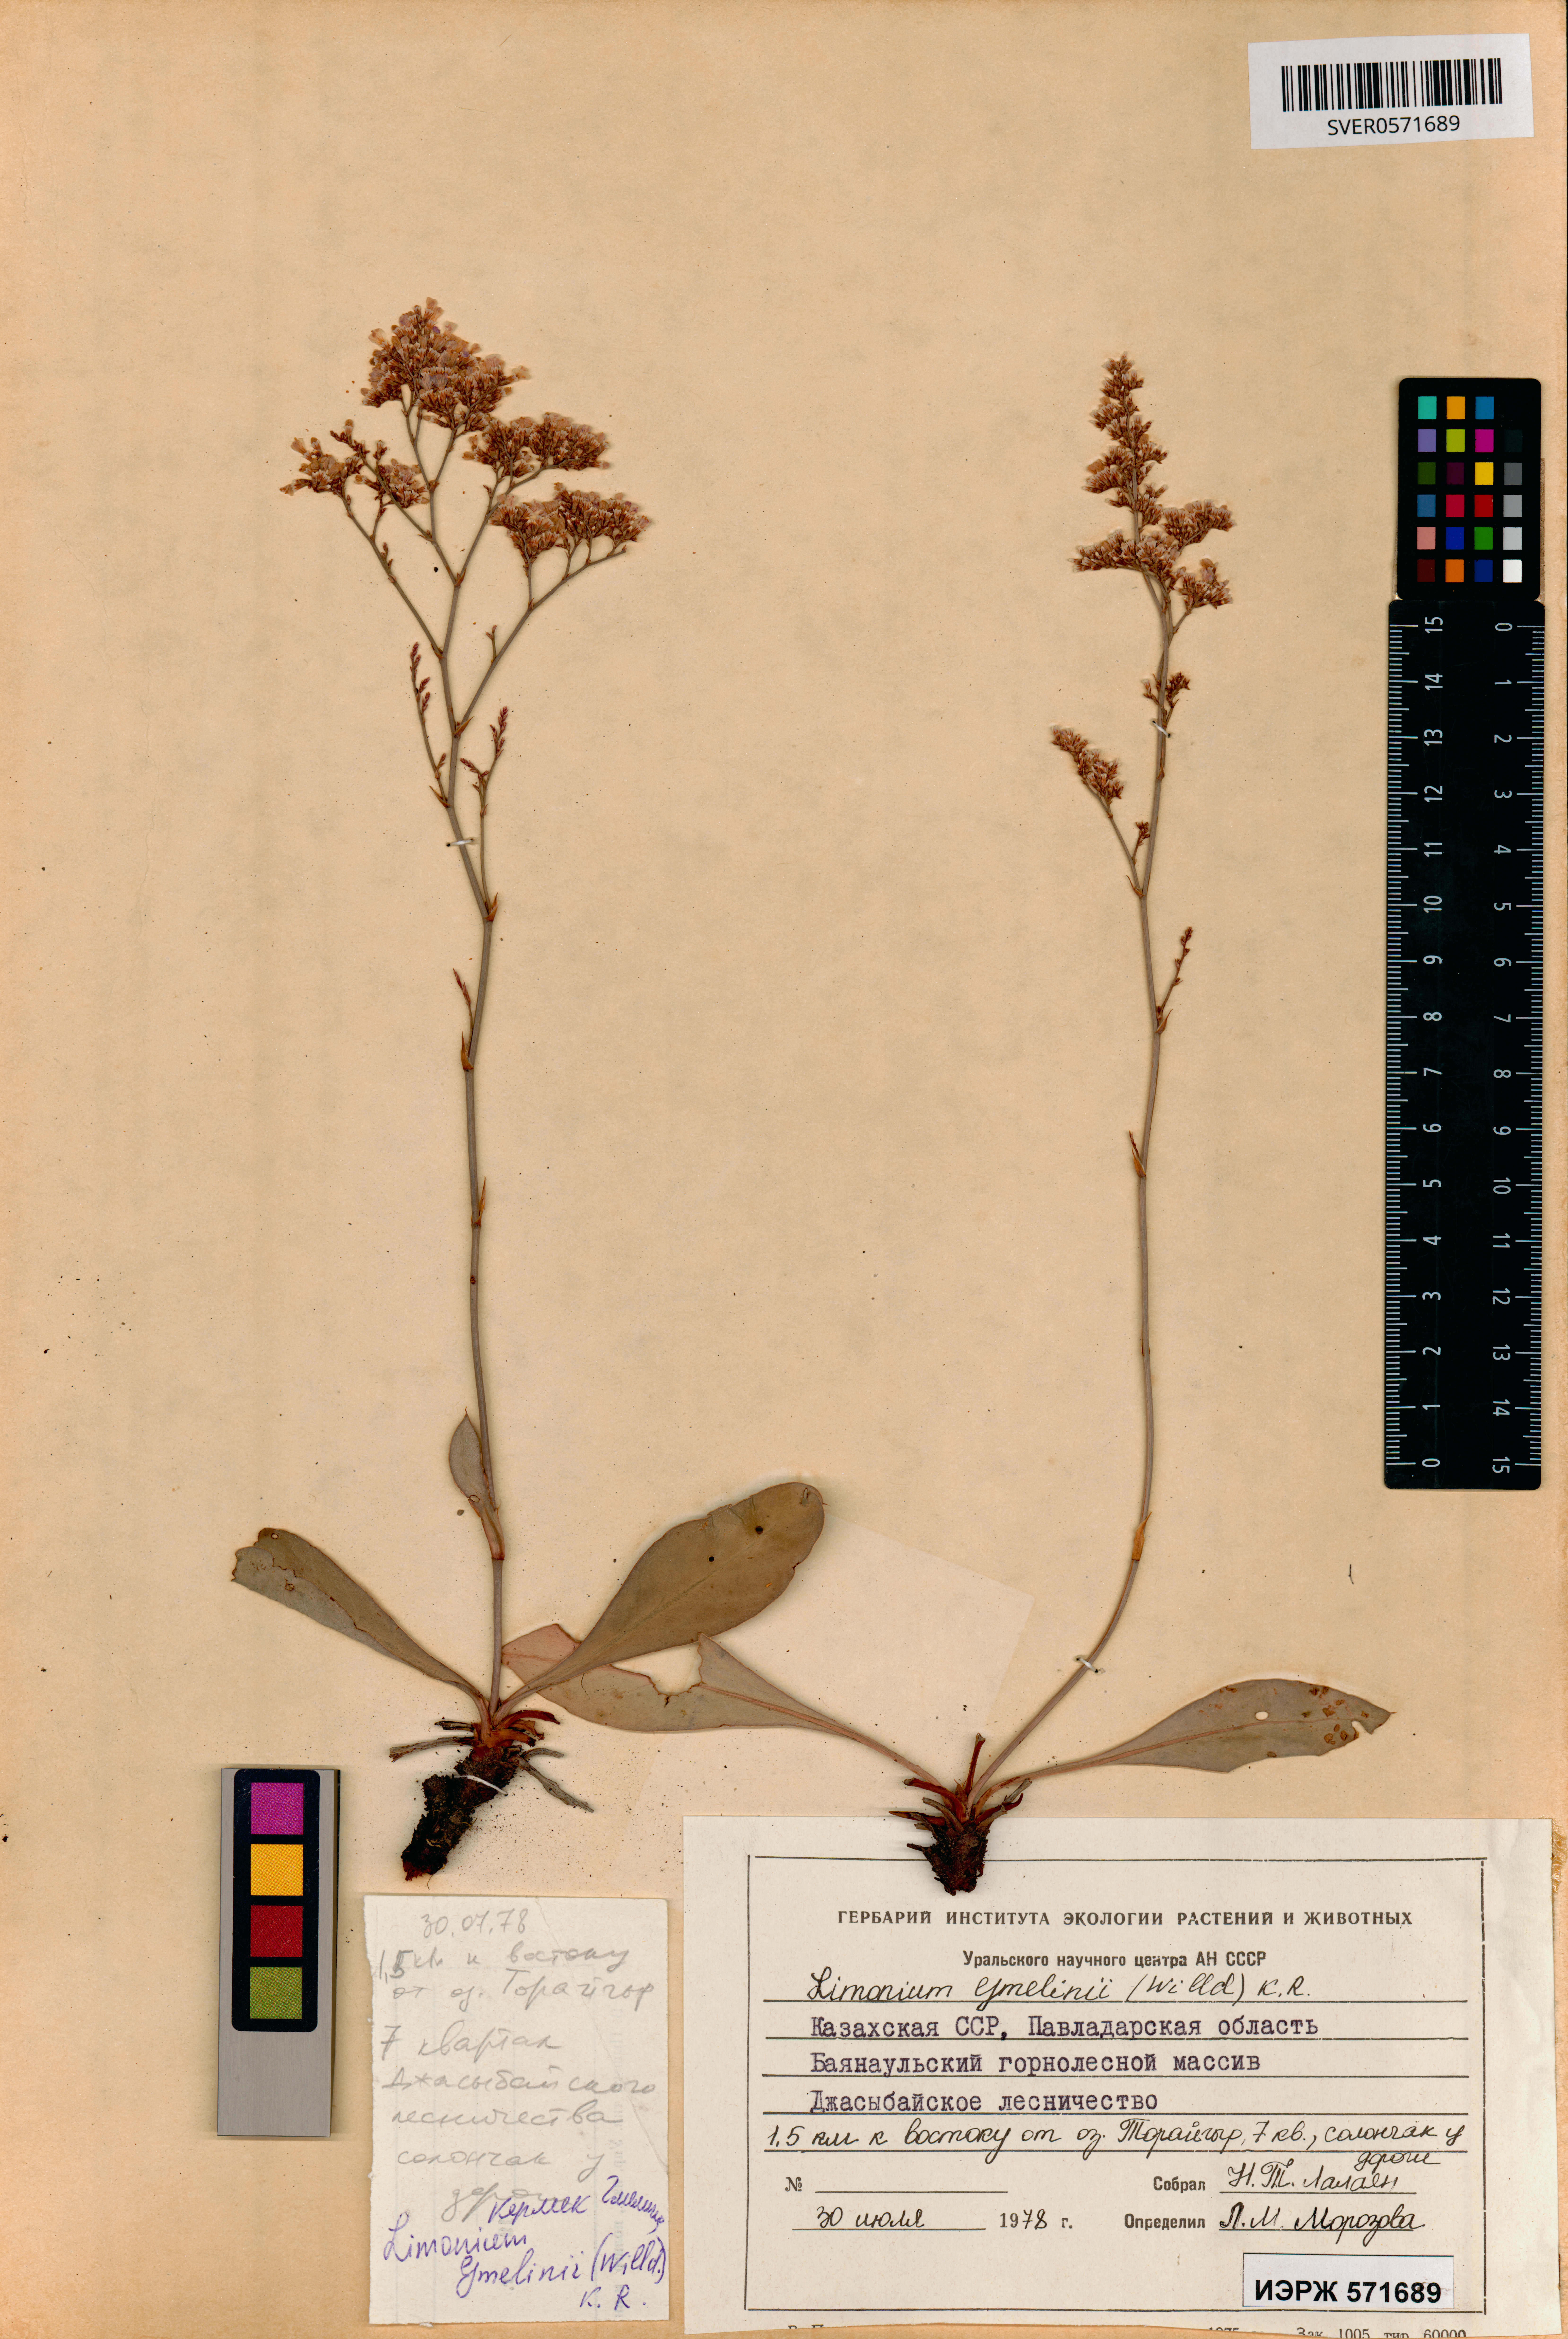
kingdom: Plantae
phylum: Tracheophyta
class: Magnoliopsida
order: Caryophyllales
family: Plumbaginaceae
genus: Limonium
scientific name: Limonium gmelini
